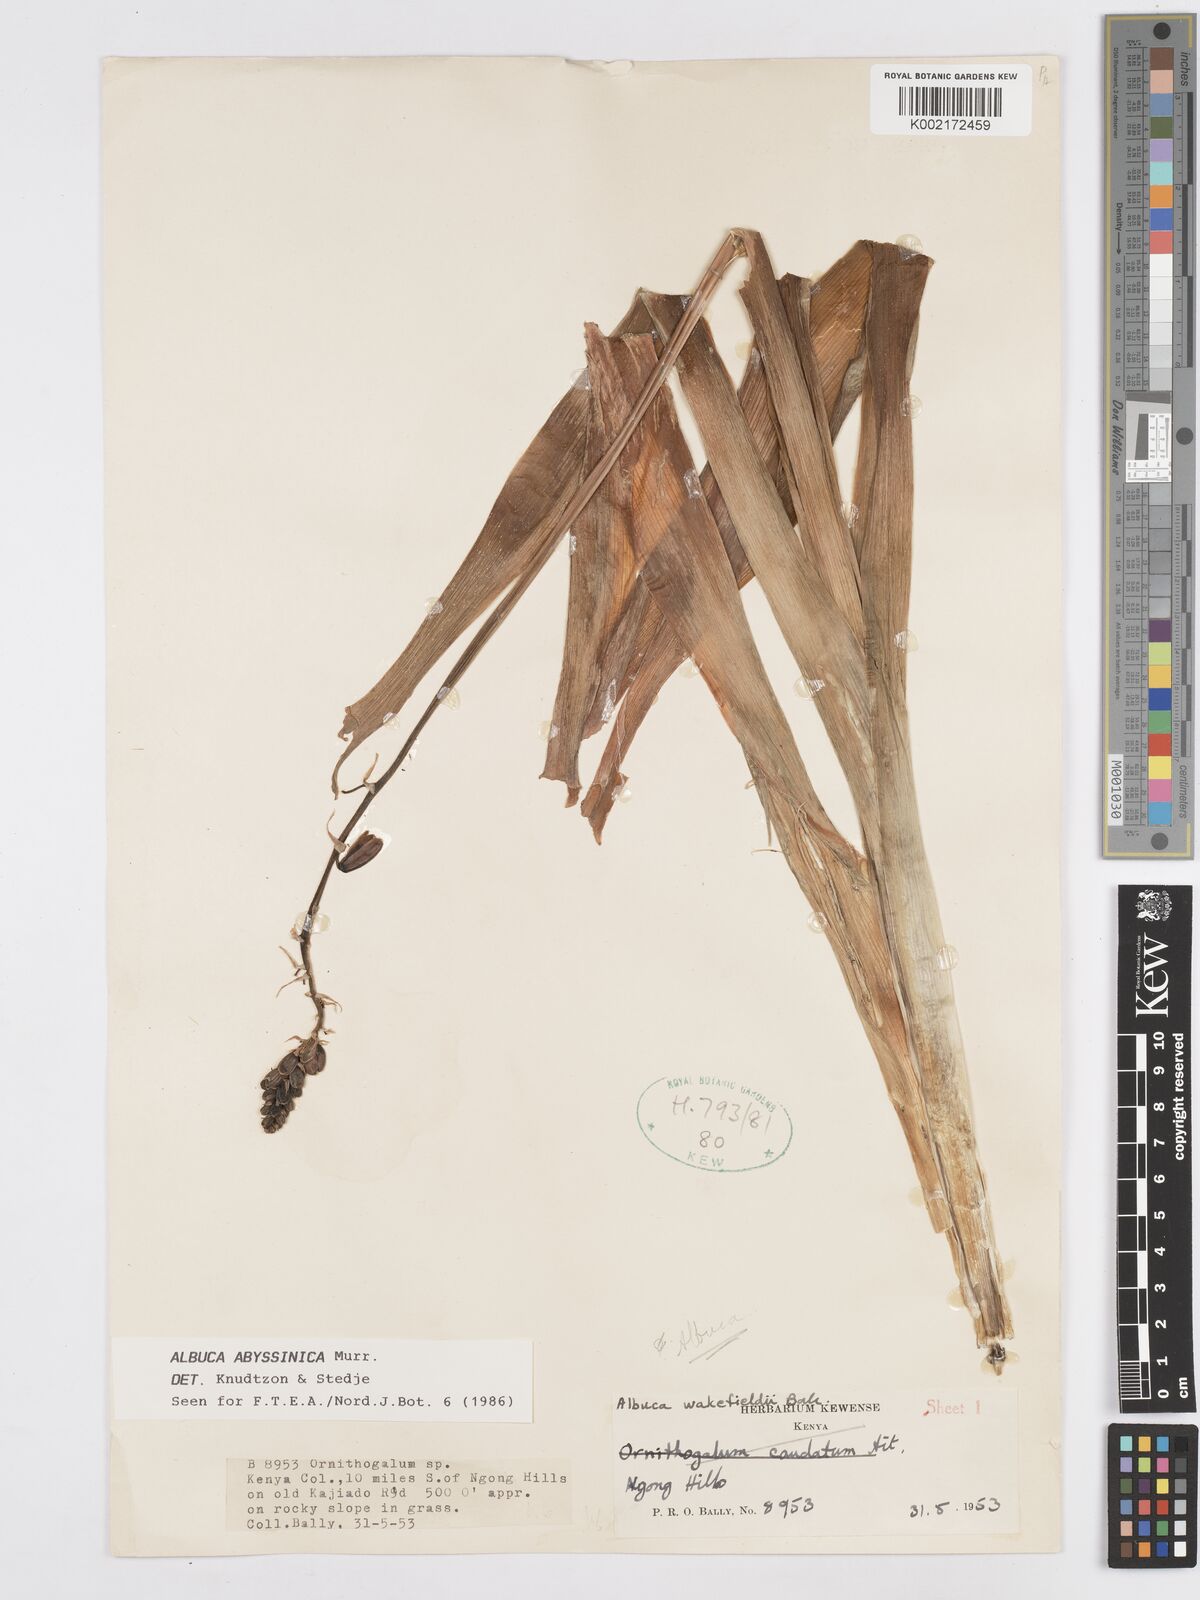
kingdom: Plantae
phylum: Tracheophyta
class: Liliopsida
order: Asparagales
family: Asparagaceae
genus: Albuca
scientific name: Albuca abyssinica
